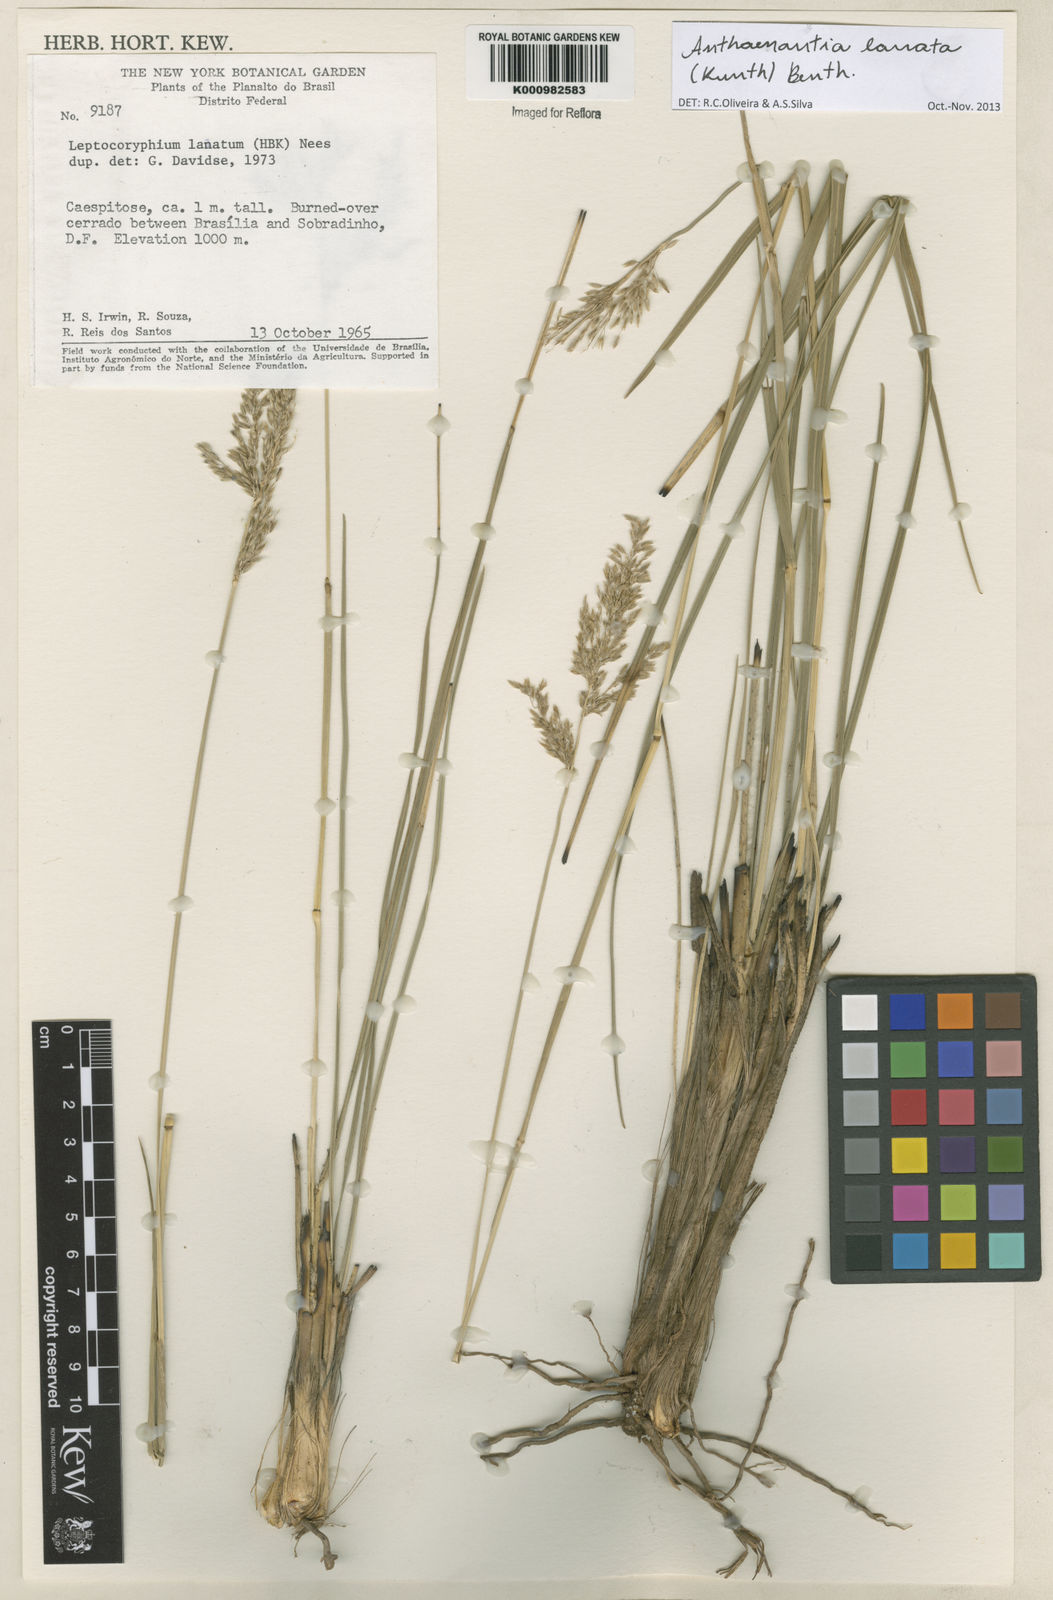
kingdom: Plantae
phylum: Tracheophyta
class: Liliopsida
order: Poales
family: Poaceae
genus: Anthenantia
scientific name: Anthenantia lanata
